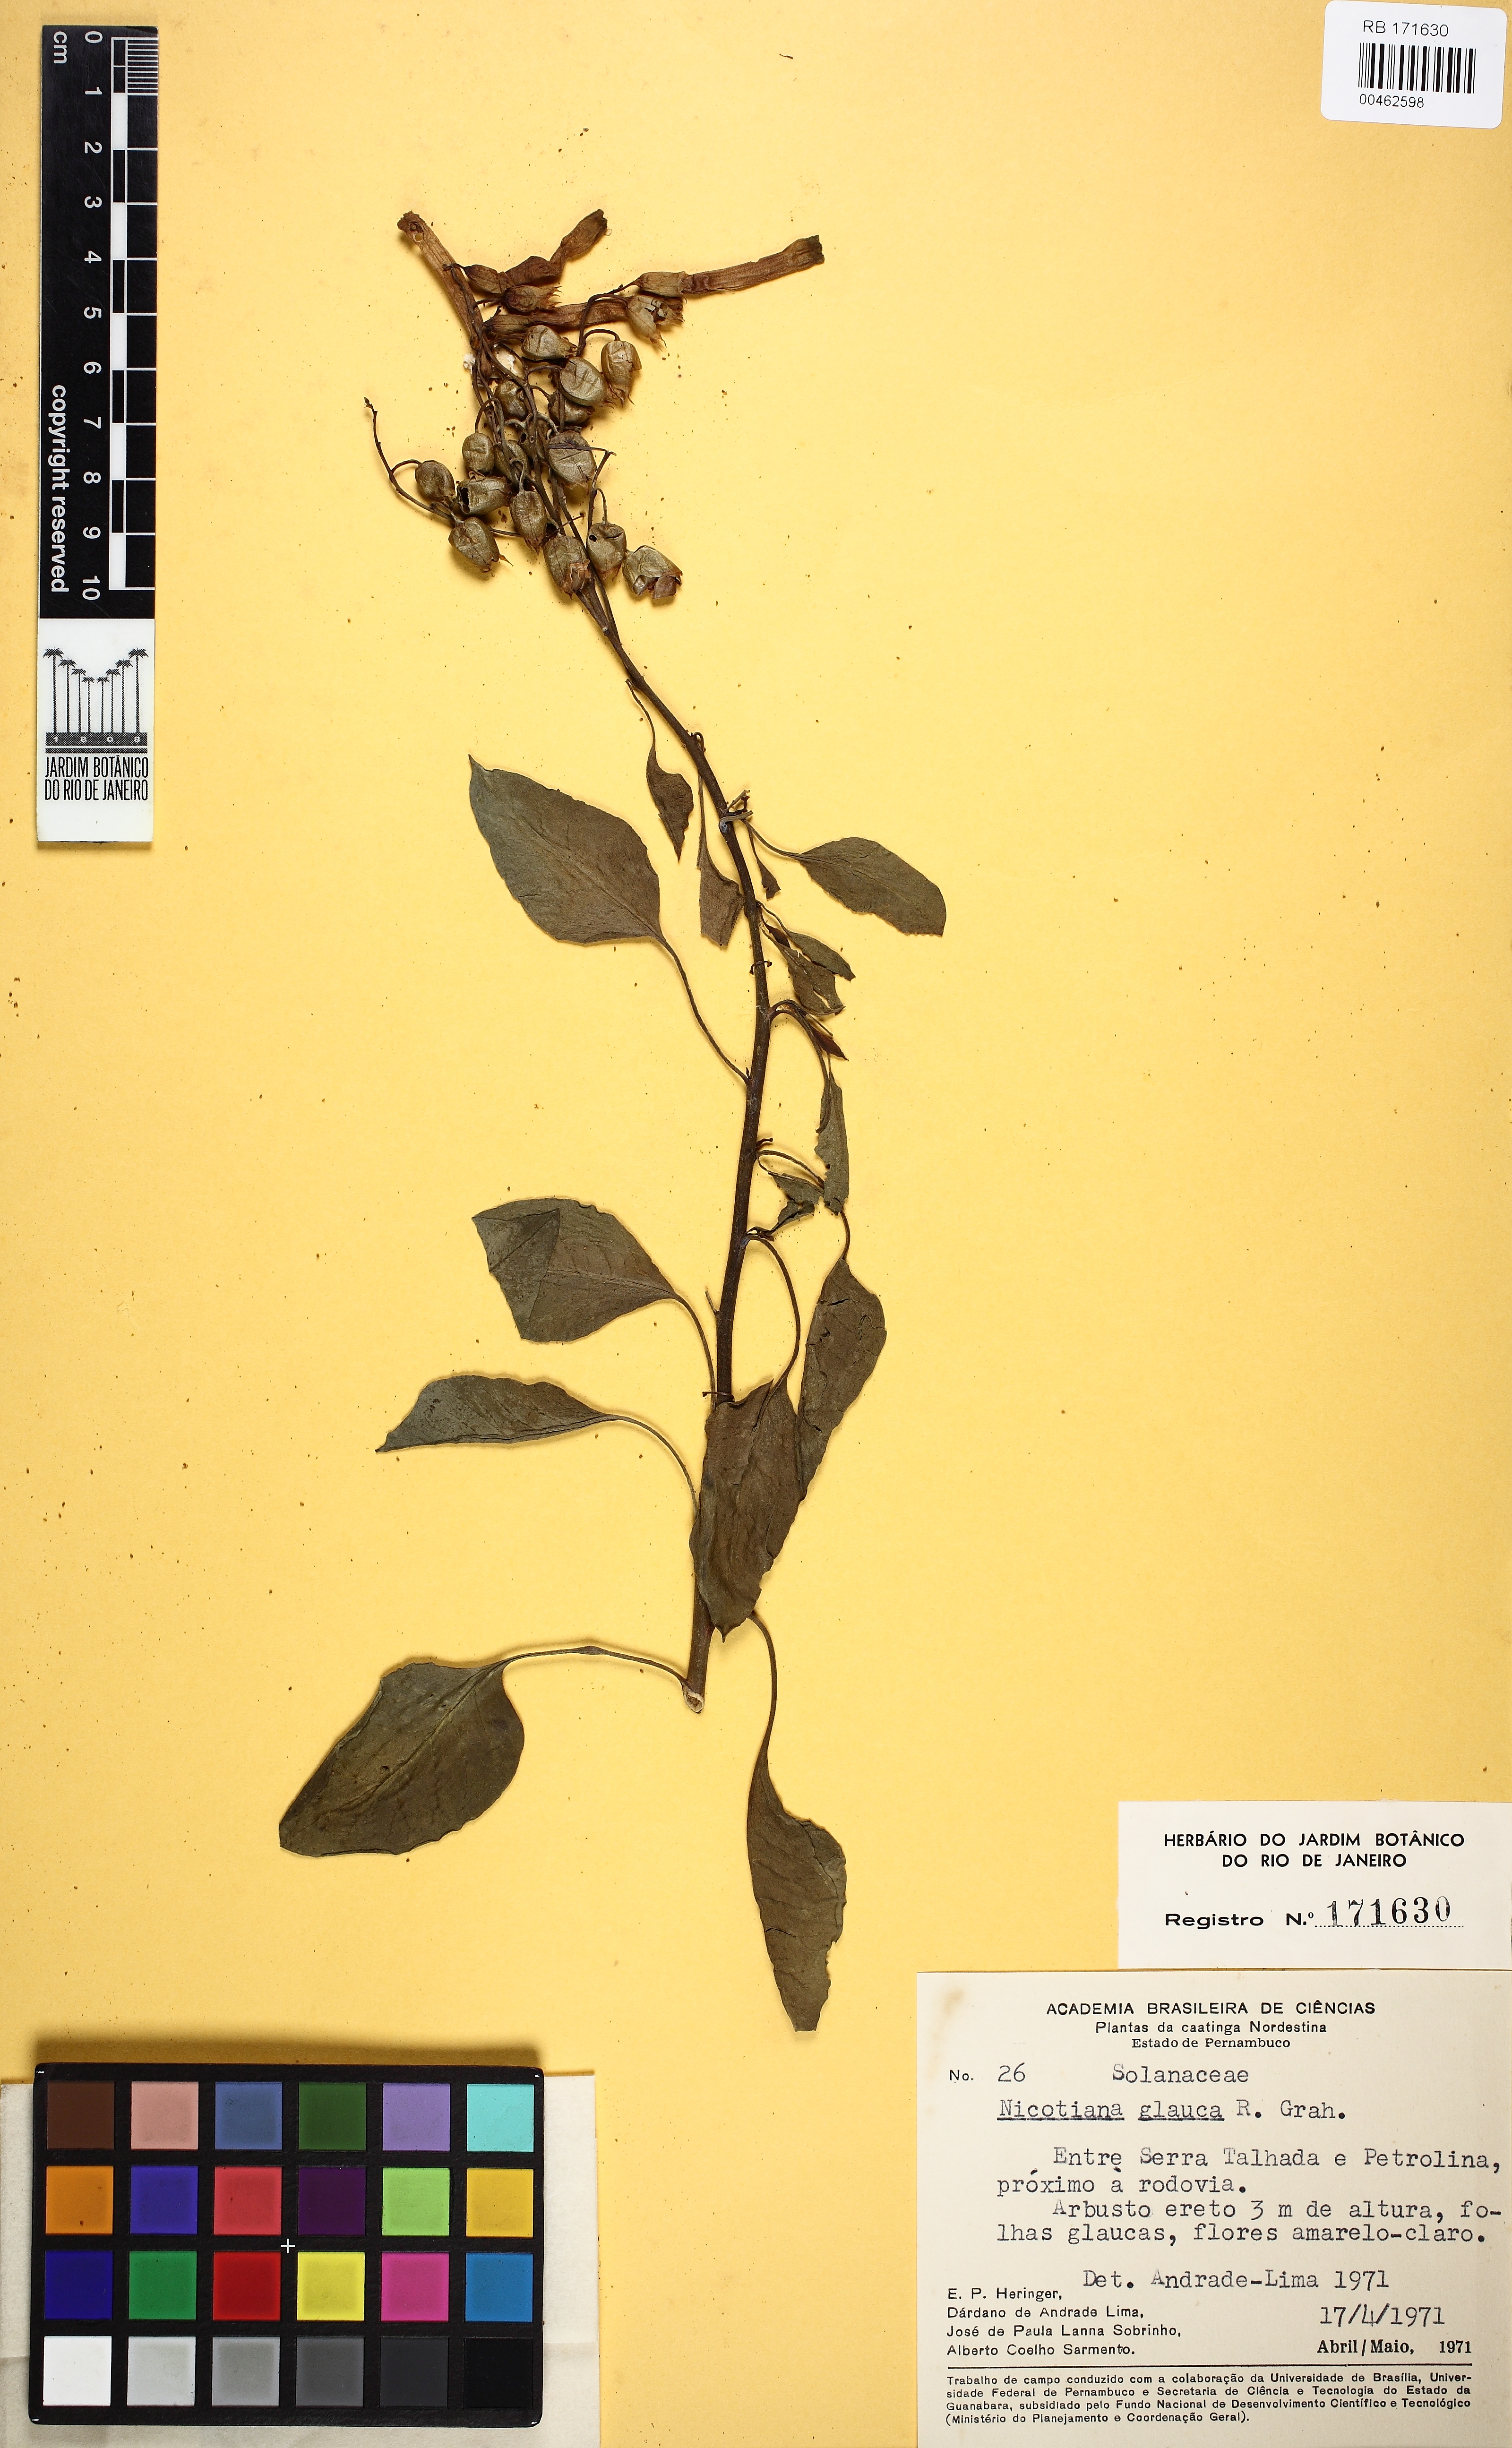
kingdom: Plantae
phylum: Tracheophyta
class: Magnoliopsida
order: Solanales
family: Solanaceae
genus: Nicotiana
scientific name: Nicotiana glauca
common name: Tree tobacco
